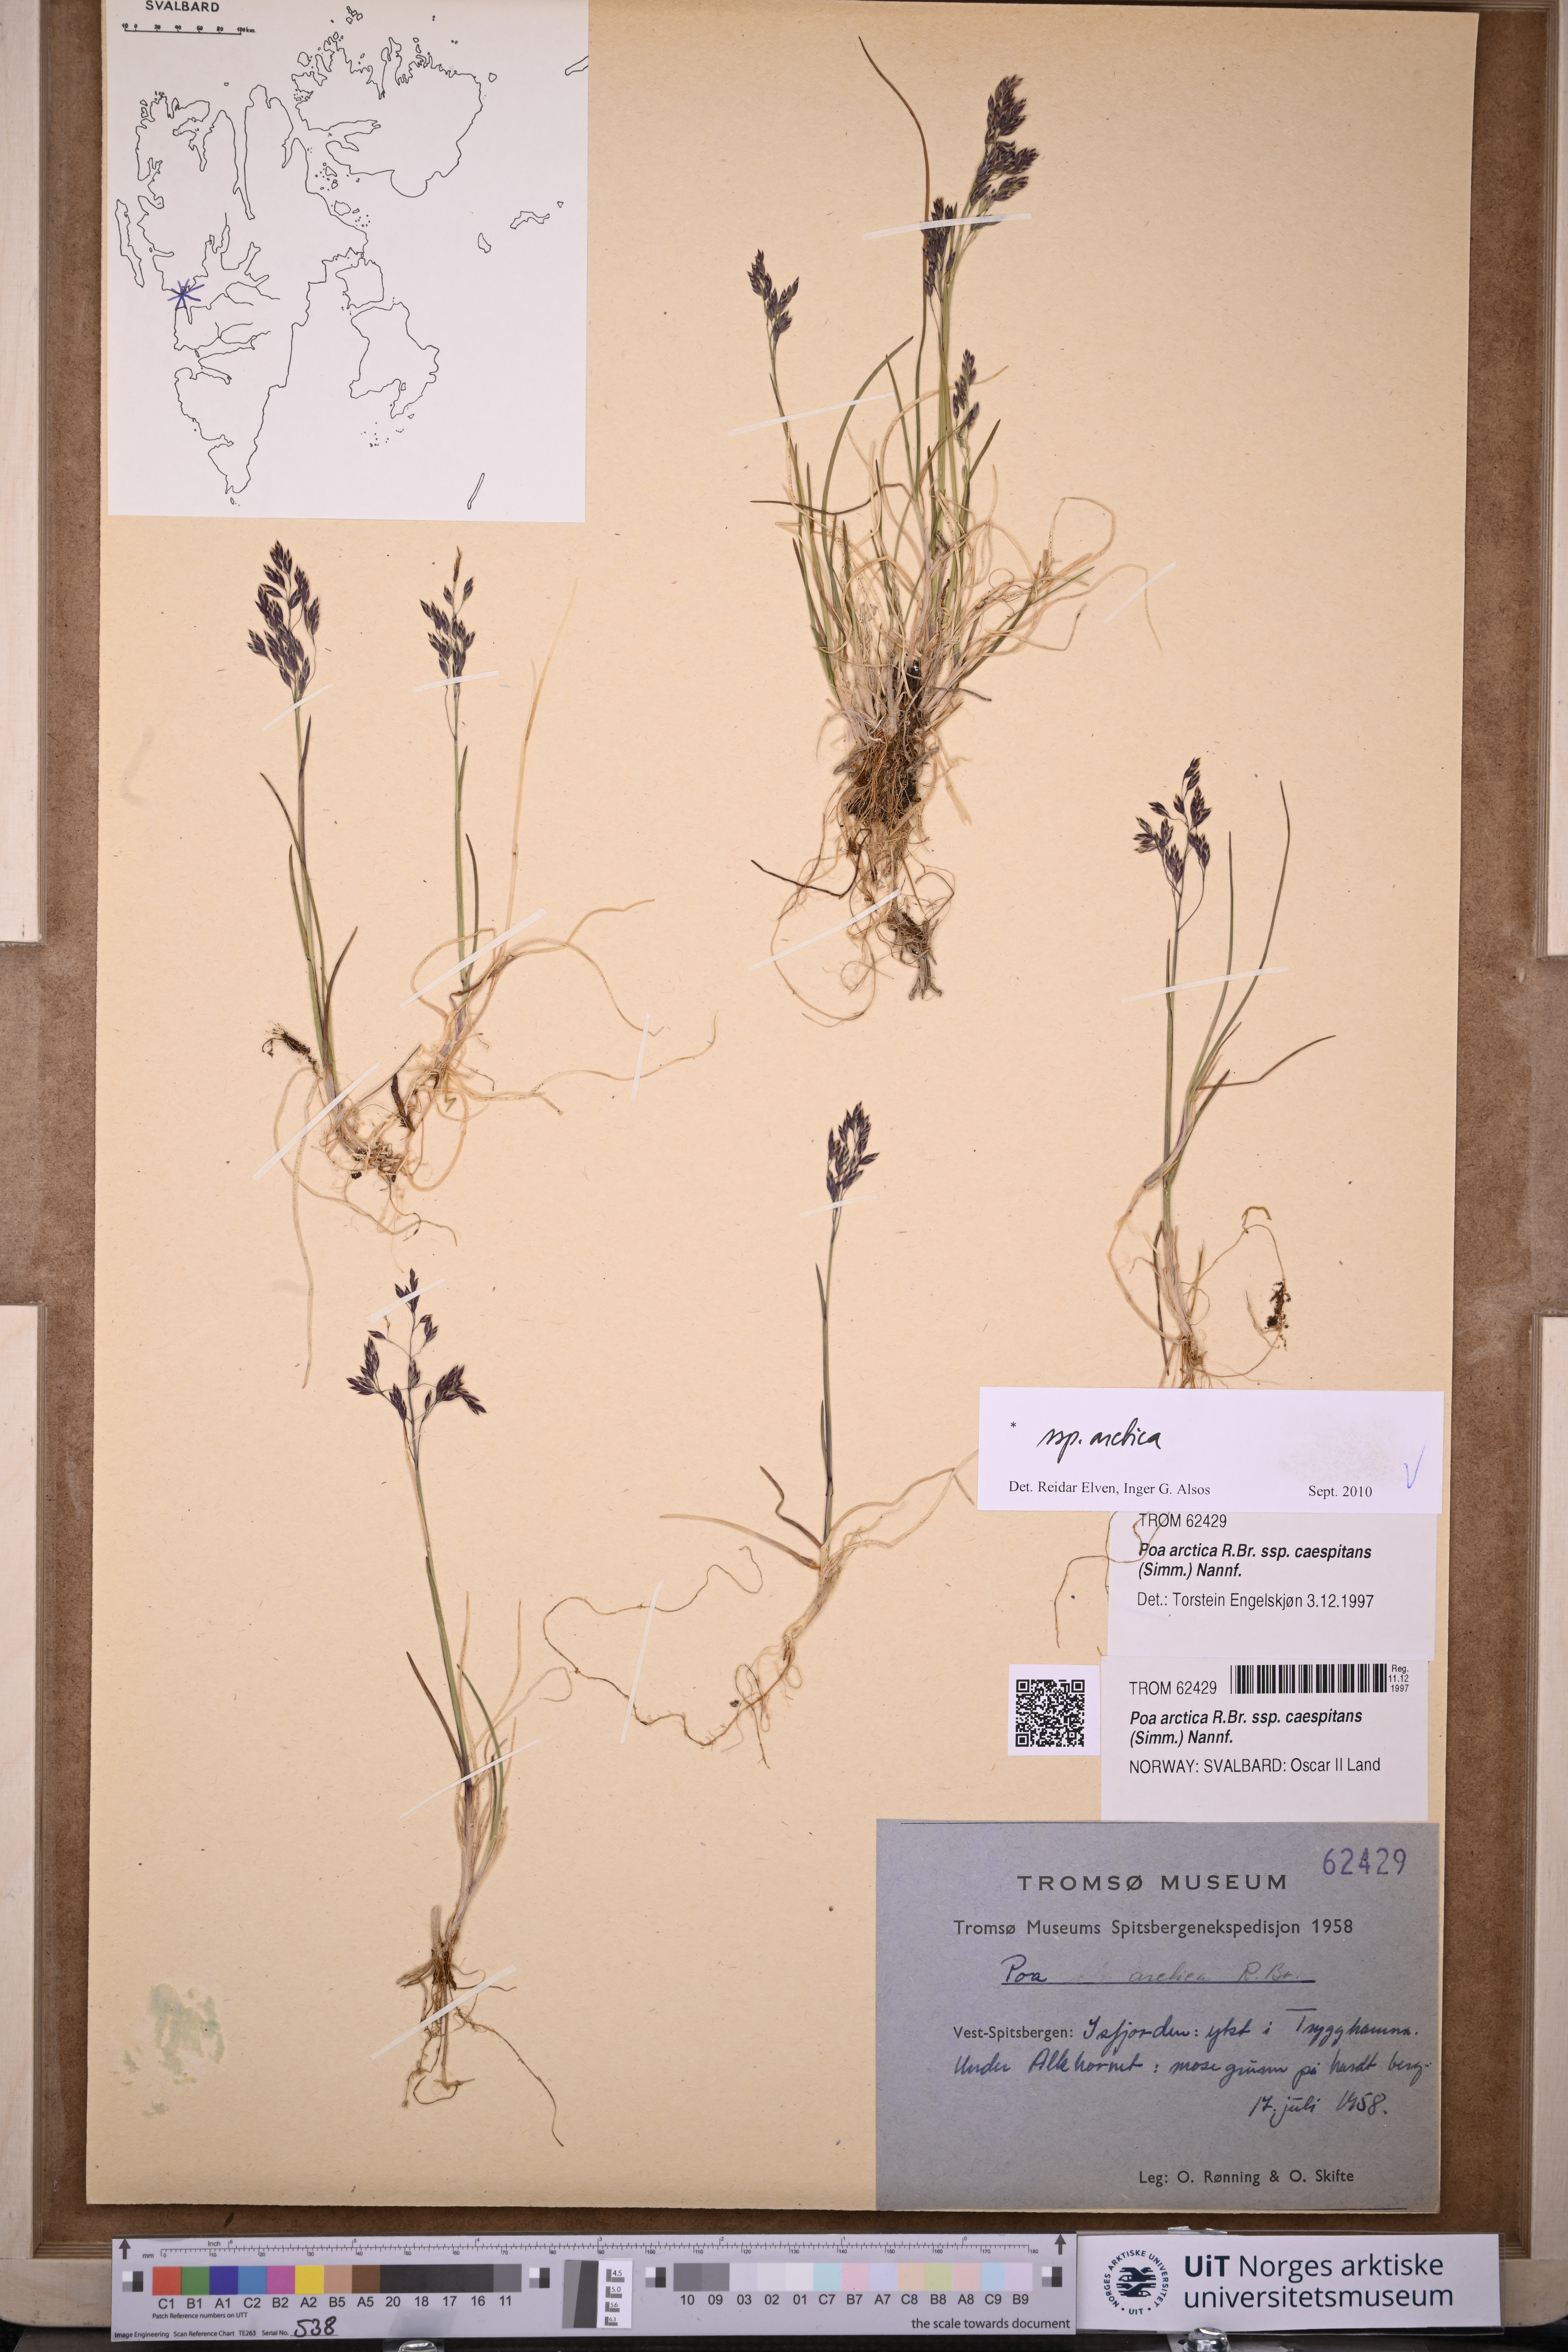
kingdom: Plantae
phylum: Tracheophyta
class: Liliopsida
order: Poales
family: Poaceae
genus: Poa
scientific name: Poa arctica
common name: Arctic bluegrass
